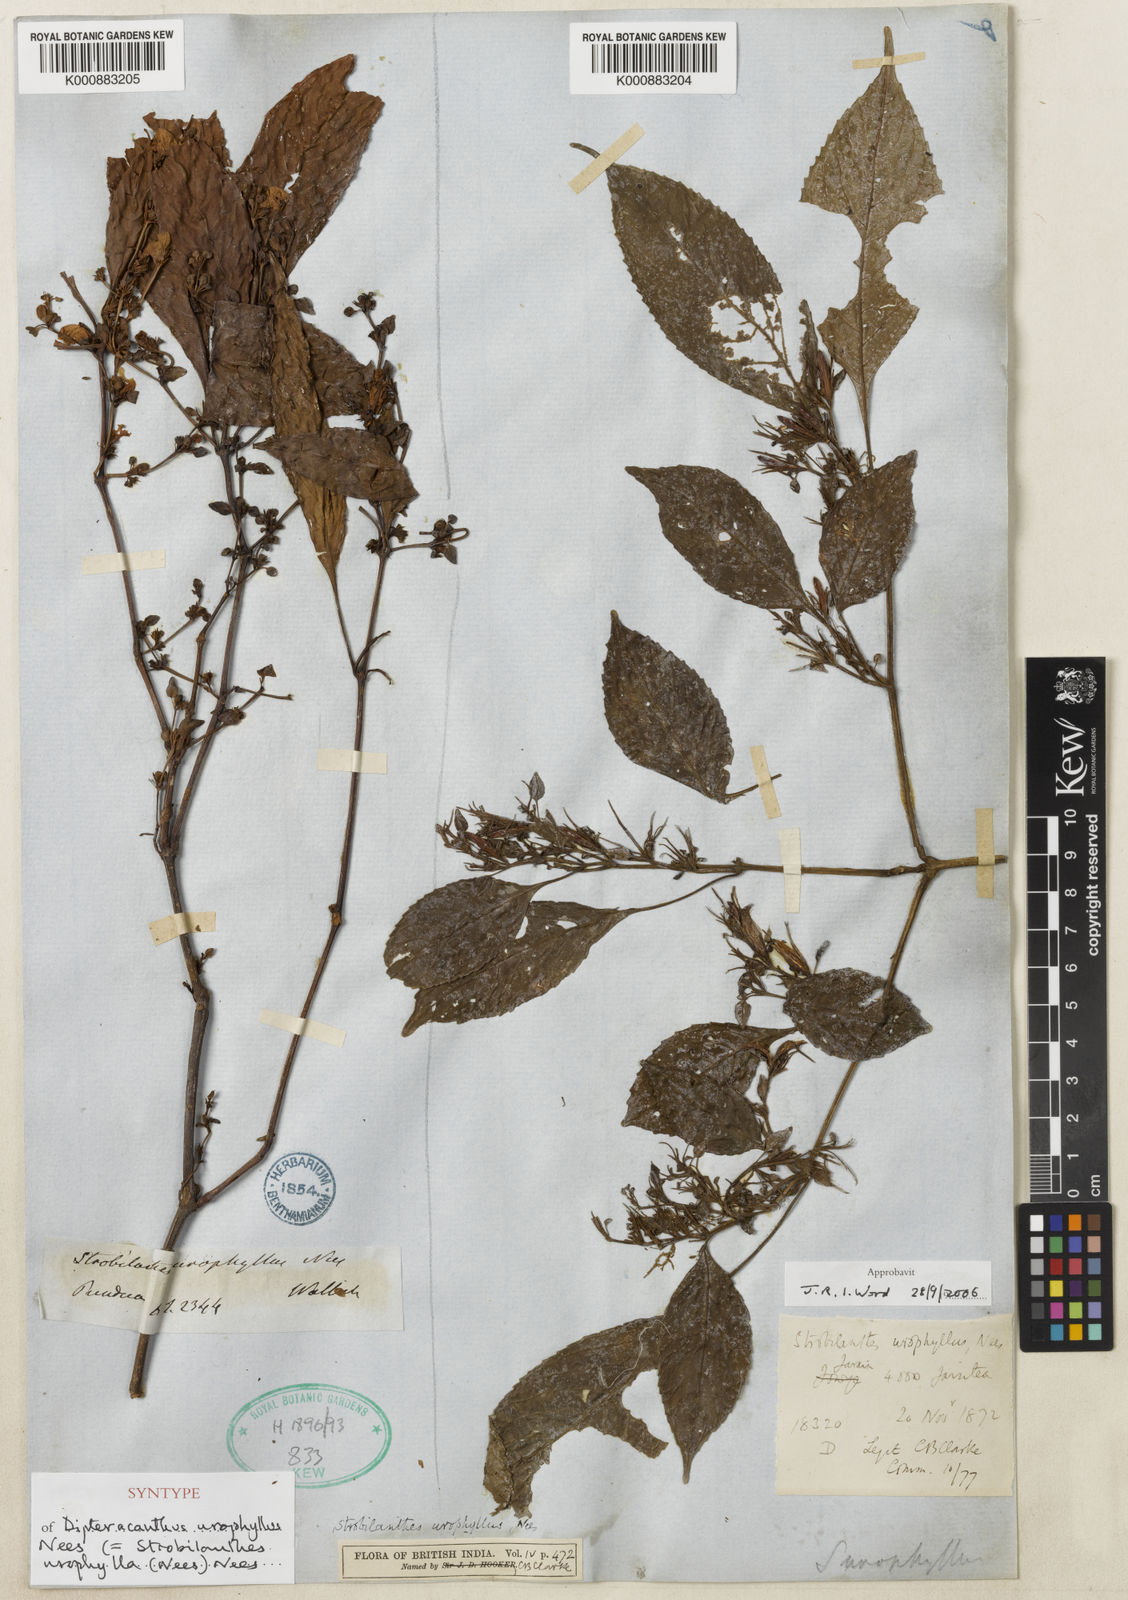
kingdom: Plantae
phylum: Tracheophyta
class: Magnoliopsida
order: Lamiales
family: Acanthaceae
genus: Strobilanthes
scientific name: Strobilanthes urophylla
